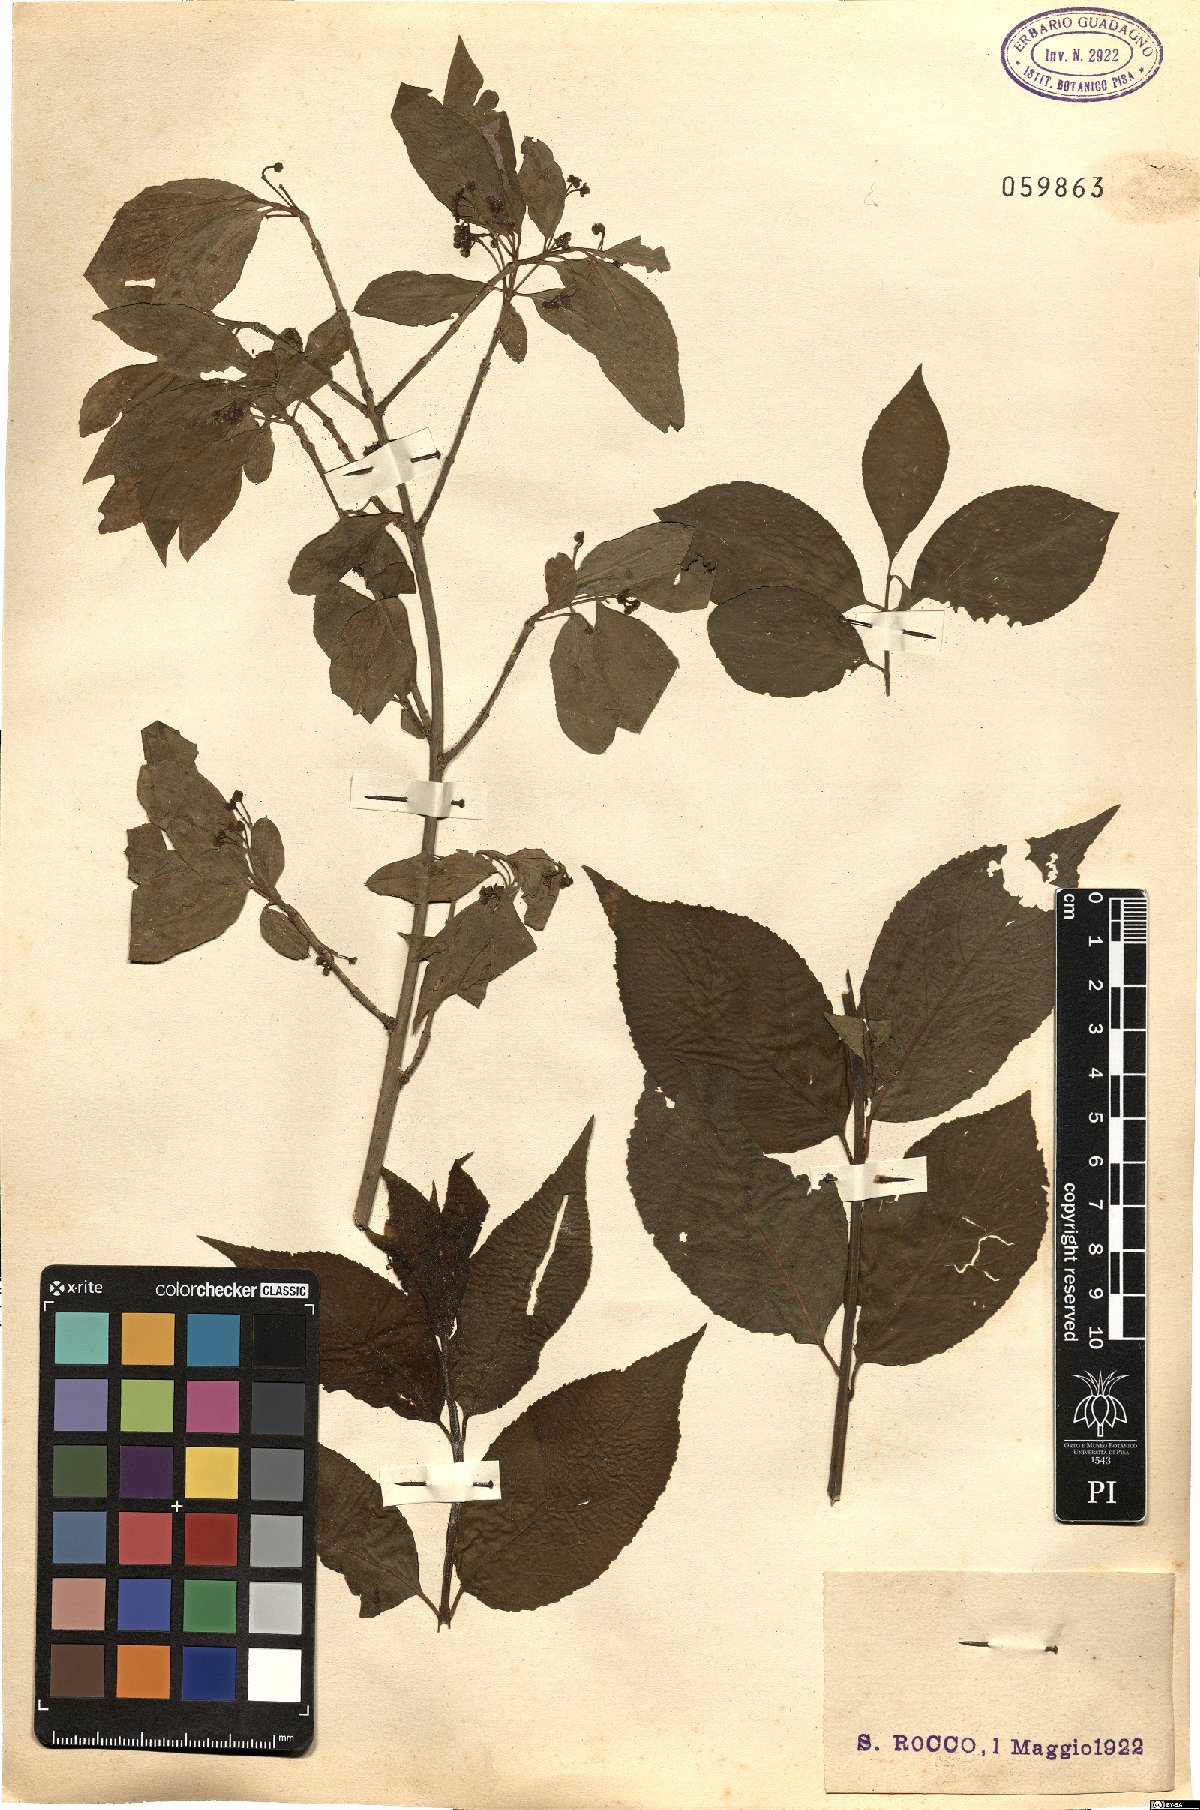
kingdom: Plantae
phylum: Tracheophyta
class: Magnoliopsida
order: Celastrales
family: Celastraceae
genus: Euonymus
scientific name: Euonymus europaeus
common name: Spindle
